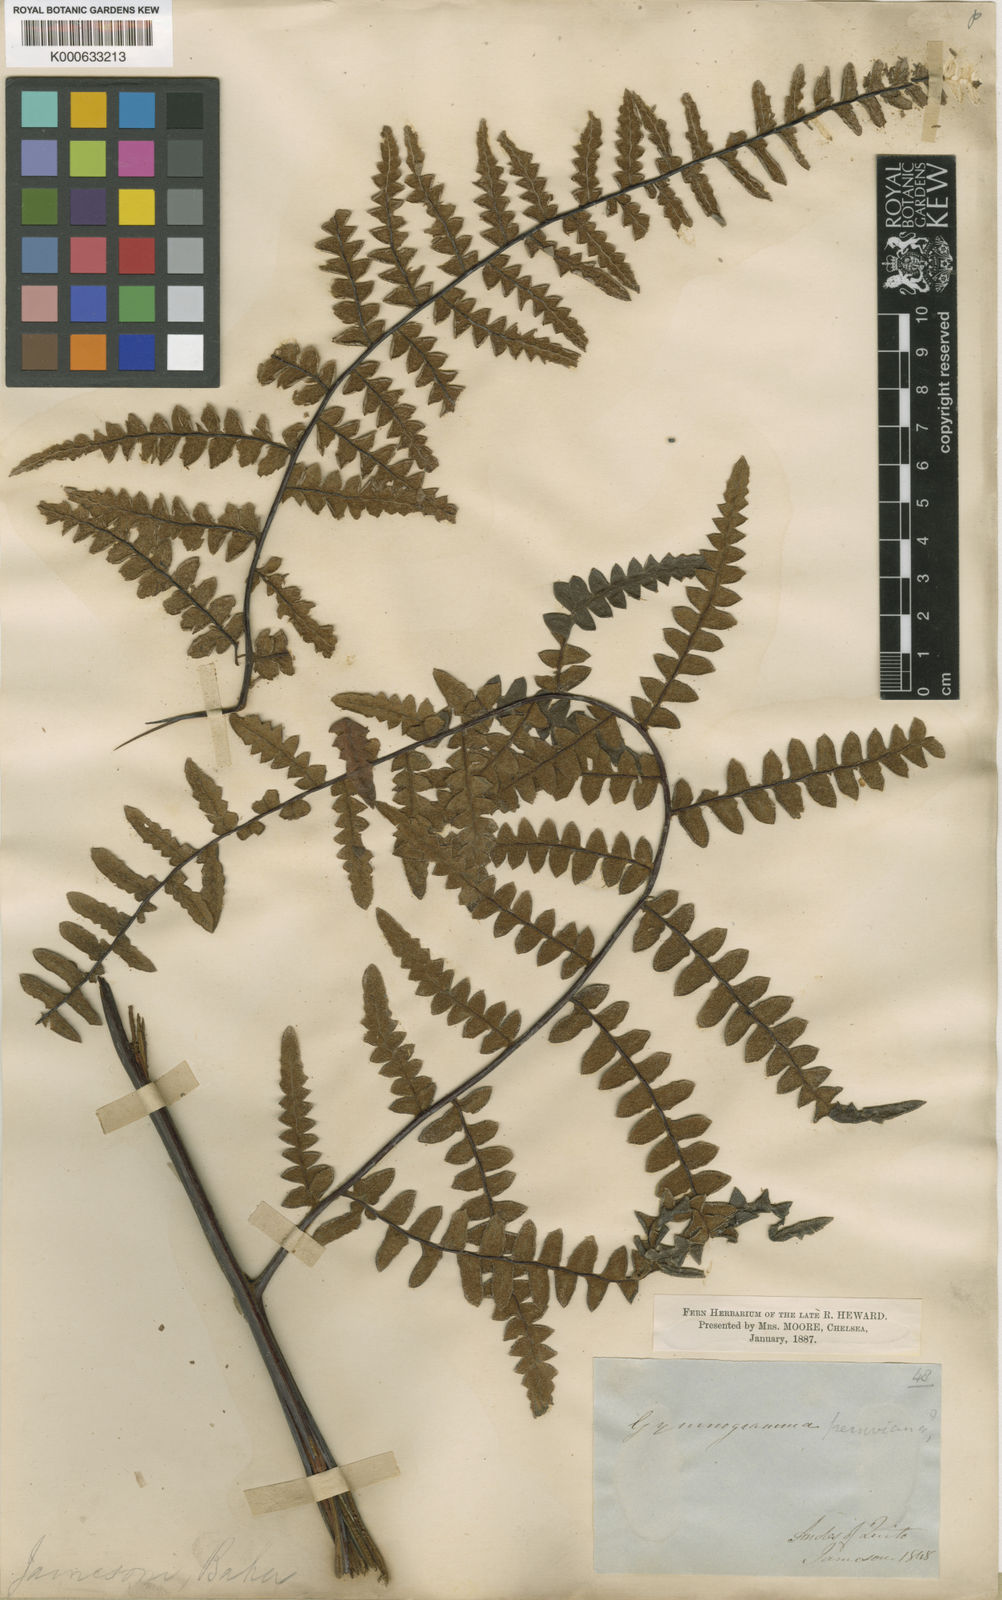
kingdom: Plantae
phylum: Tracheophyta
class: Polypodiopsida
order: Polypodiales
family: Pteridaceae
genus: Pityrogramma
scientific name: Pityrogramma jamesonii
